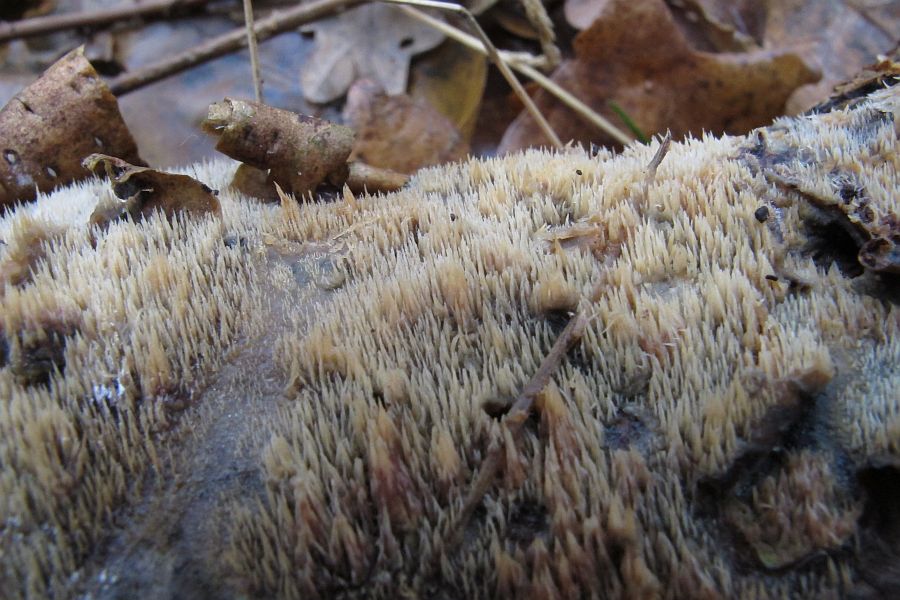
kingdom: Fungi
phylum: Basidiomycota
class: Agaricomycetes
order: Polyporales
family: Meruliaceae
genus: Mycoacia
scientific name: Mycoacia uda
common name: citrongul vokspig
